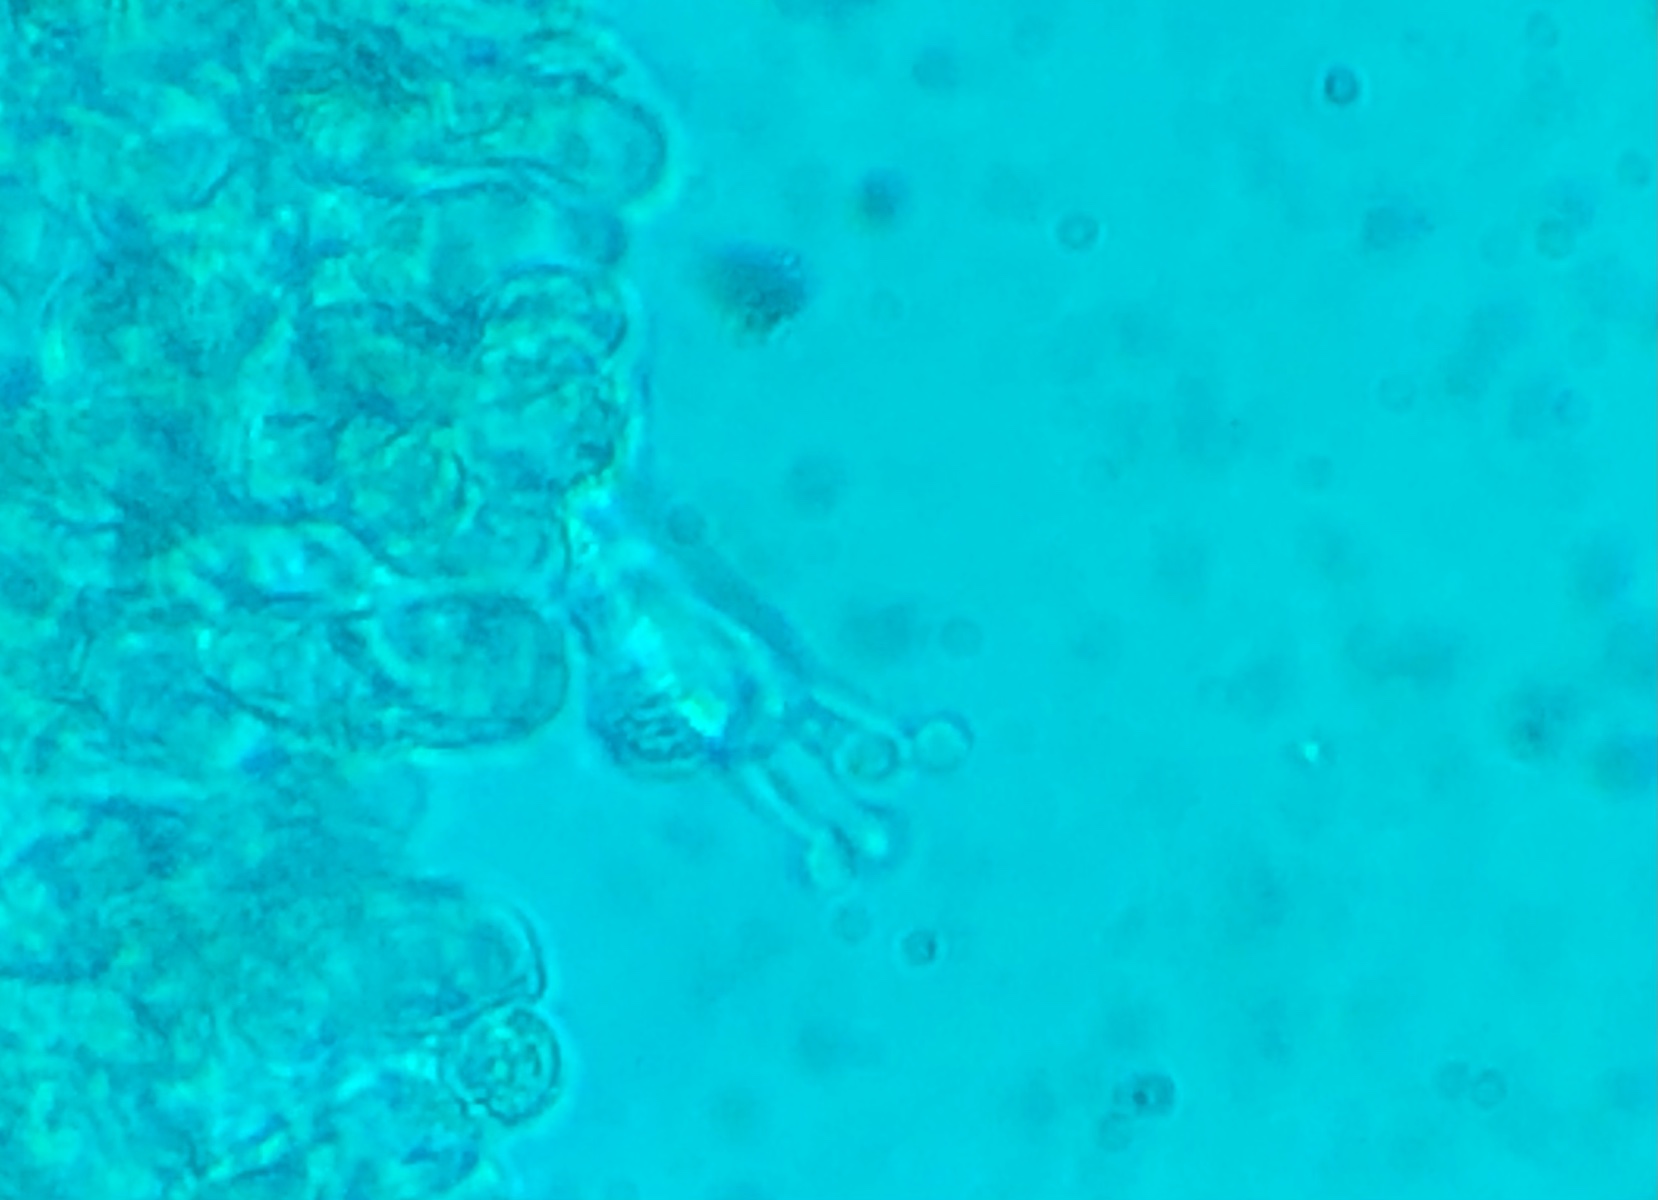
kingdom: Fungi
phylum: Basidiomycota
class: Agaricomycetes
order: Agaricales
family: Hygrophoraceae
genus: Arrhenia
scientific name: Arrhenia
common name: fontænehat
